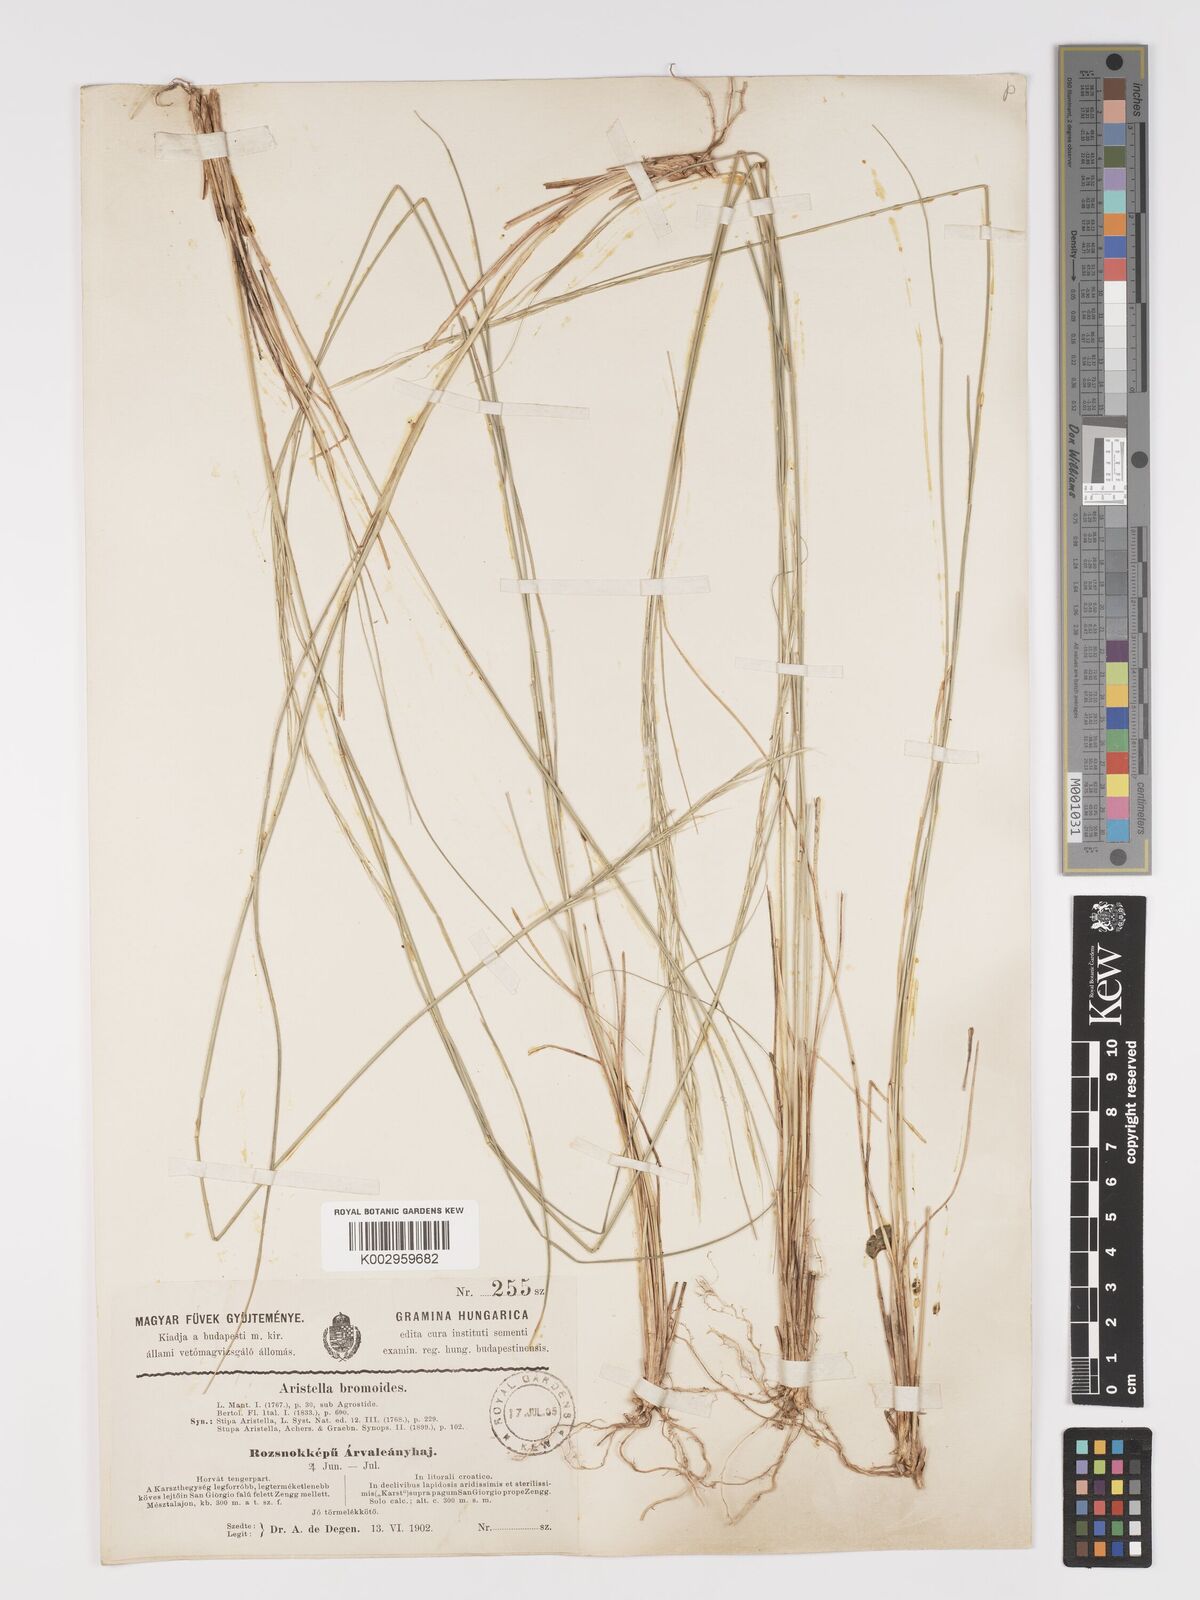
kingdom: Plantae
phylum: Tracheophyta
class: Liliopsida
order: Poales
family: Poaceae
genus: Achnatherum
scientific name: Achnatherum bromoides
